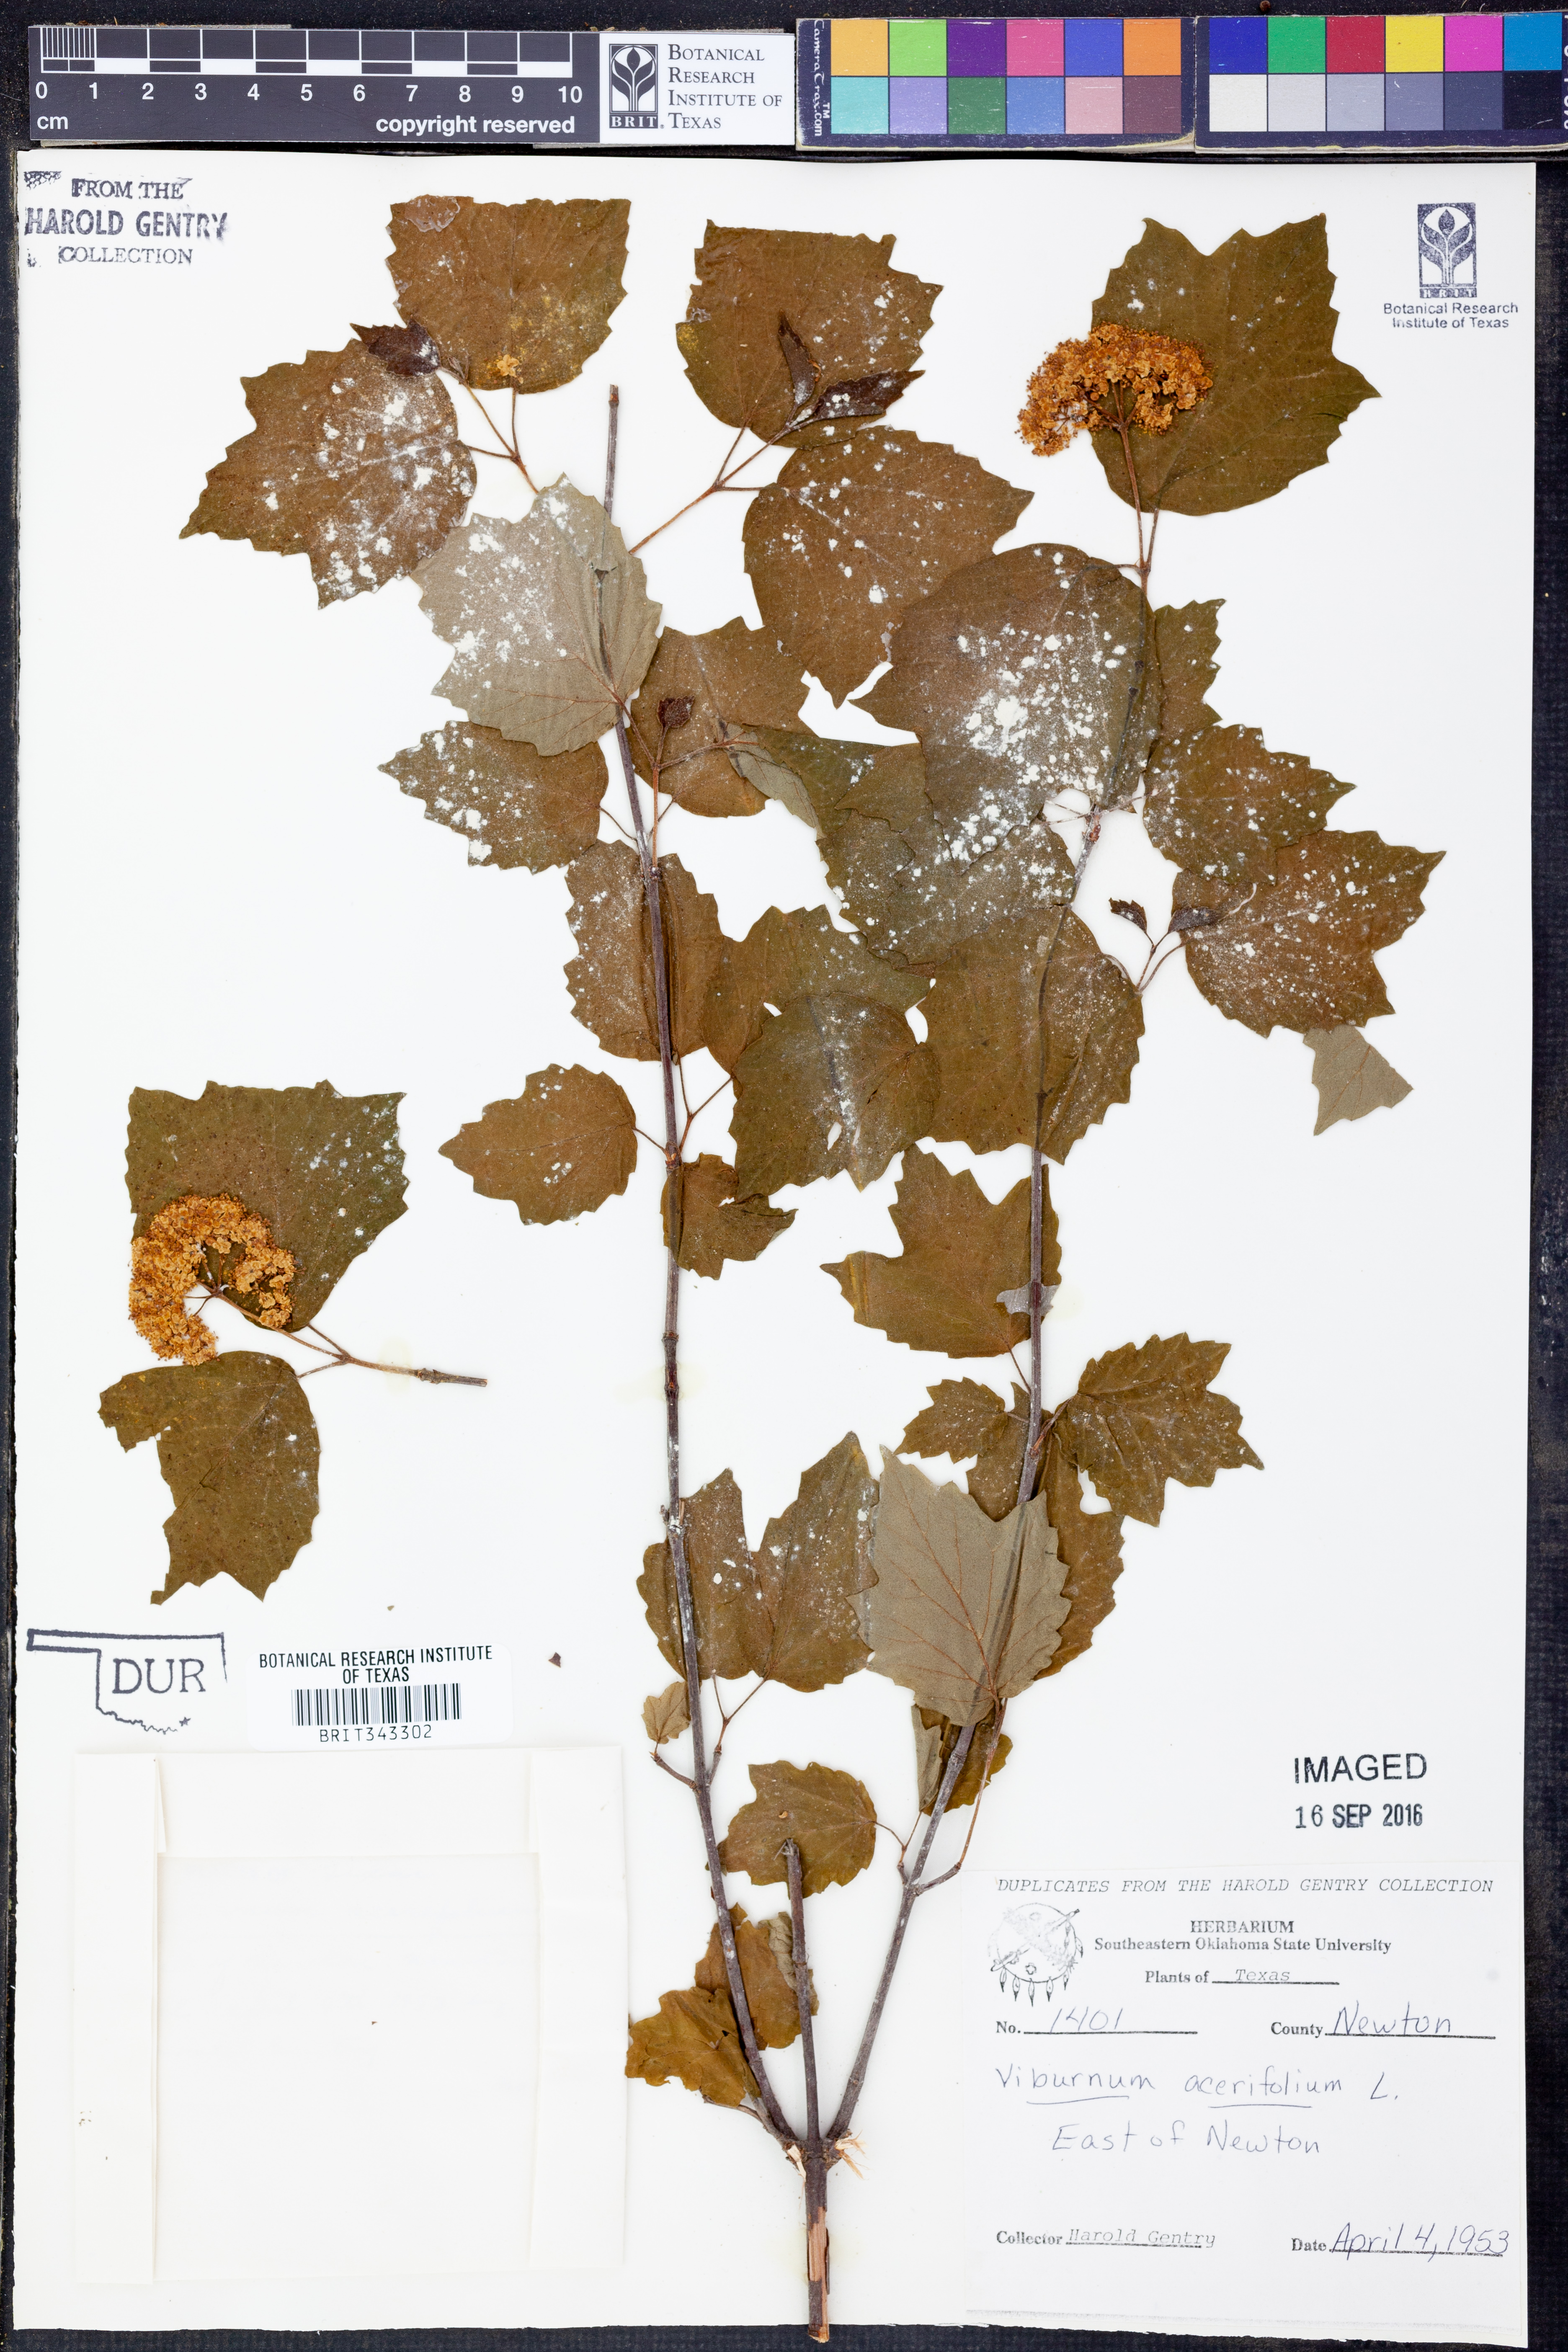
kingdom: Plantae
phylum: Tracheophyta
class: Magnoliopsida
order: Dipsacales
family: Viburnaceae
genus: Viburnum
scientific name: Viburnum acerifolium
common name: Dockmackie
